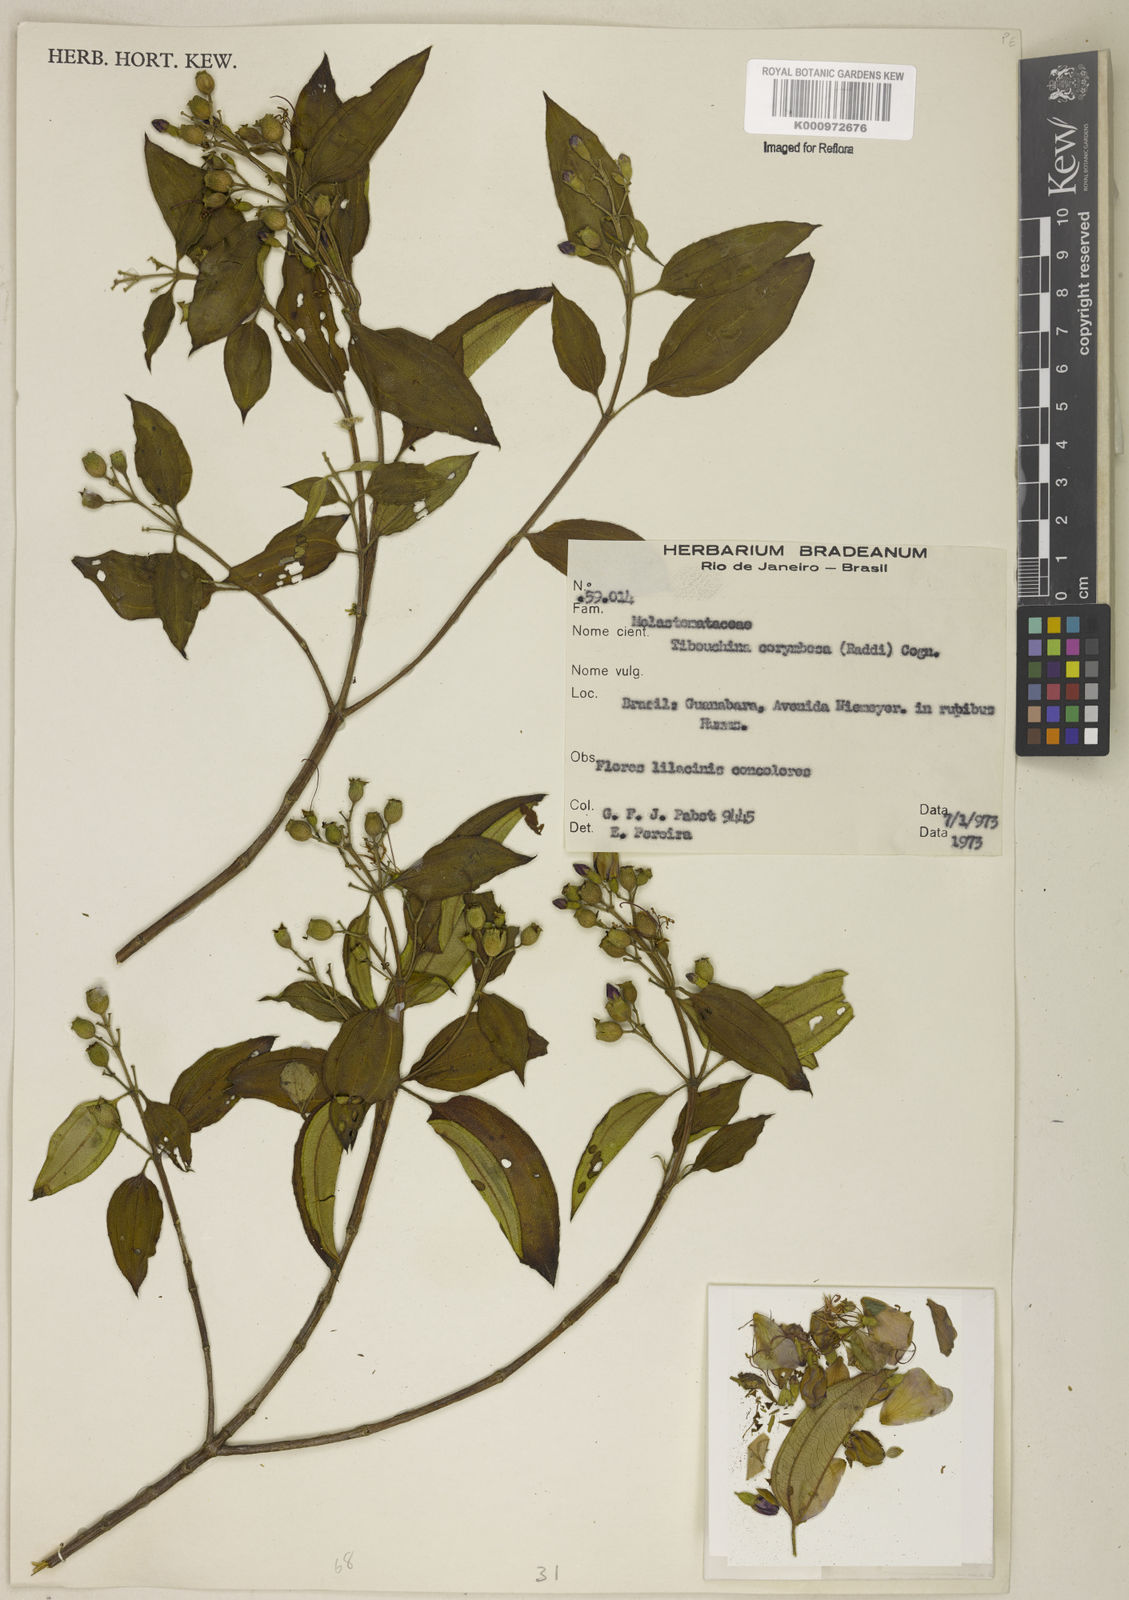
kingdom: Plantae
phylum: Tracheophyta
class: Magnoliopsida
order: Myrtales
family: Melastomataceae
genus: Pleroma
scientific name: Pleroma vimineum
